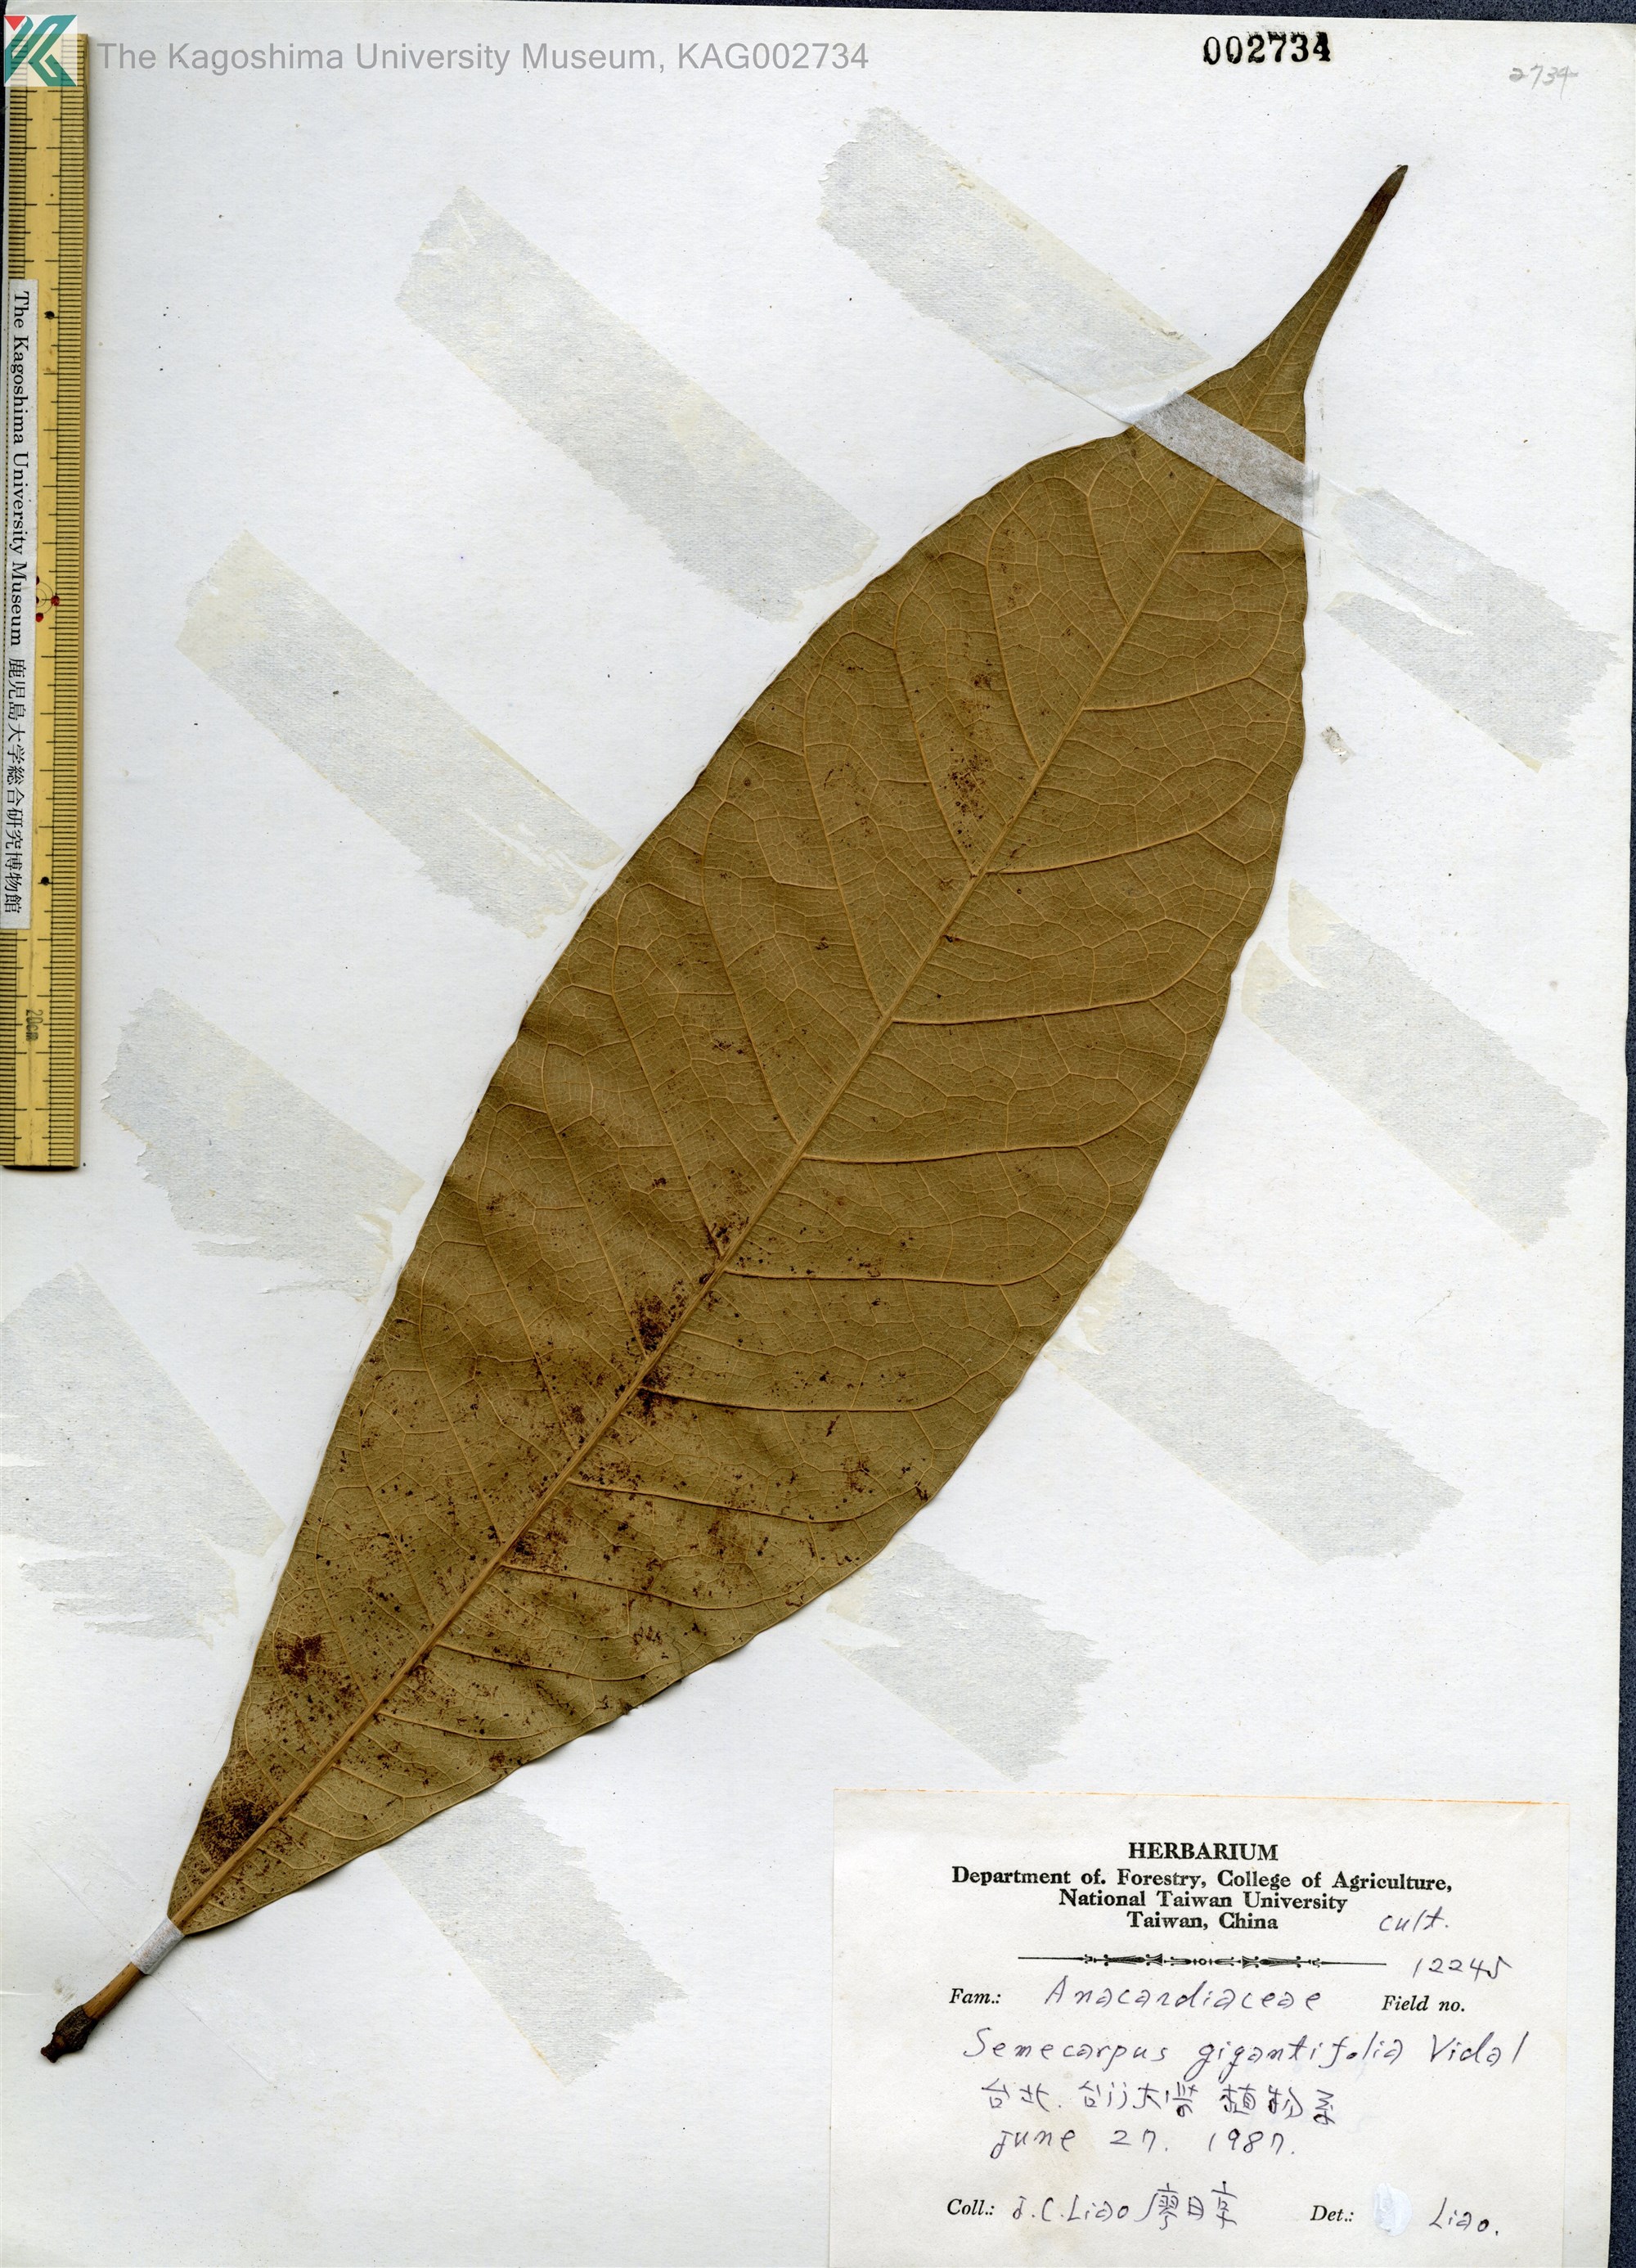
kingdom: Plantae
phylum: Tracheophyta
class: Magnoliopsida
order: Sapindales
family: Anacardiaceae
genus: Semecarpus
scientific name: Semecarpus longifolius
